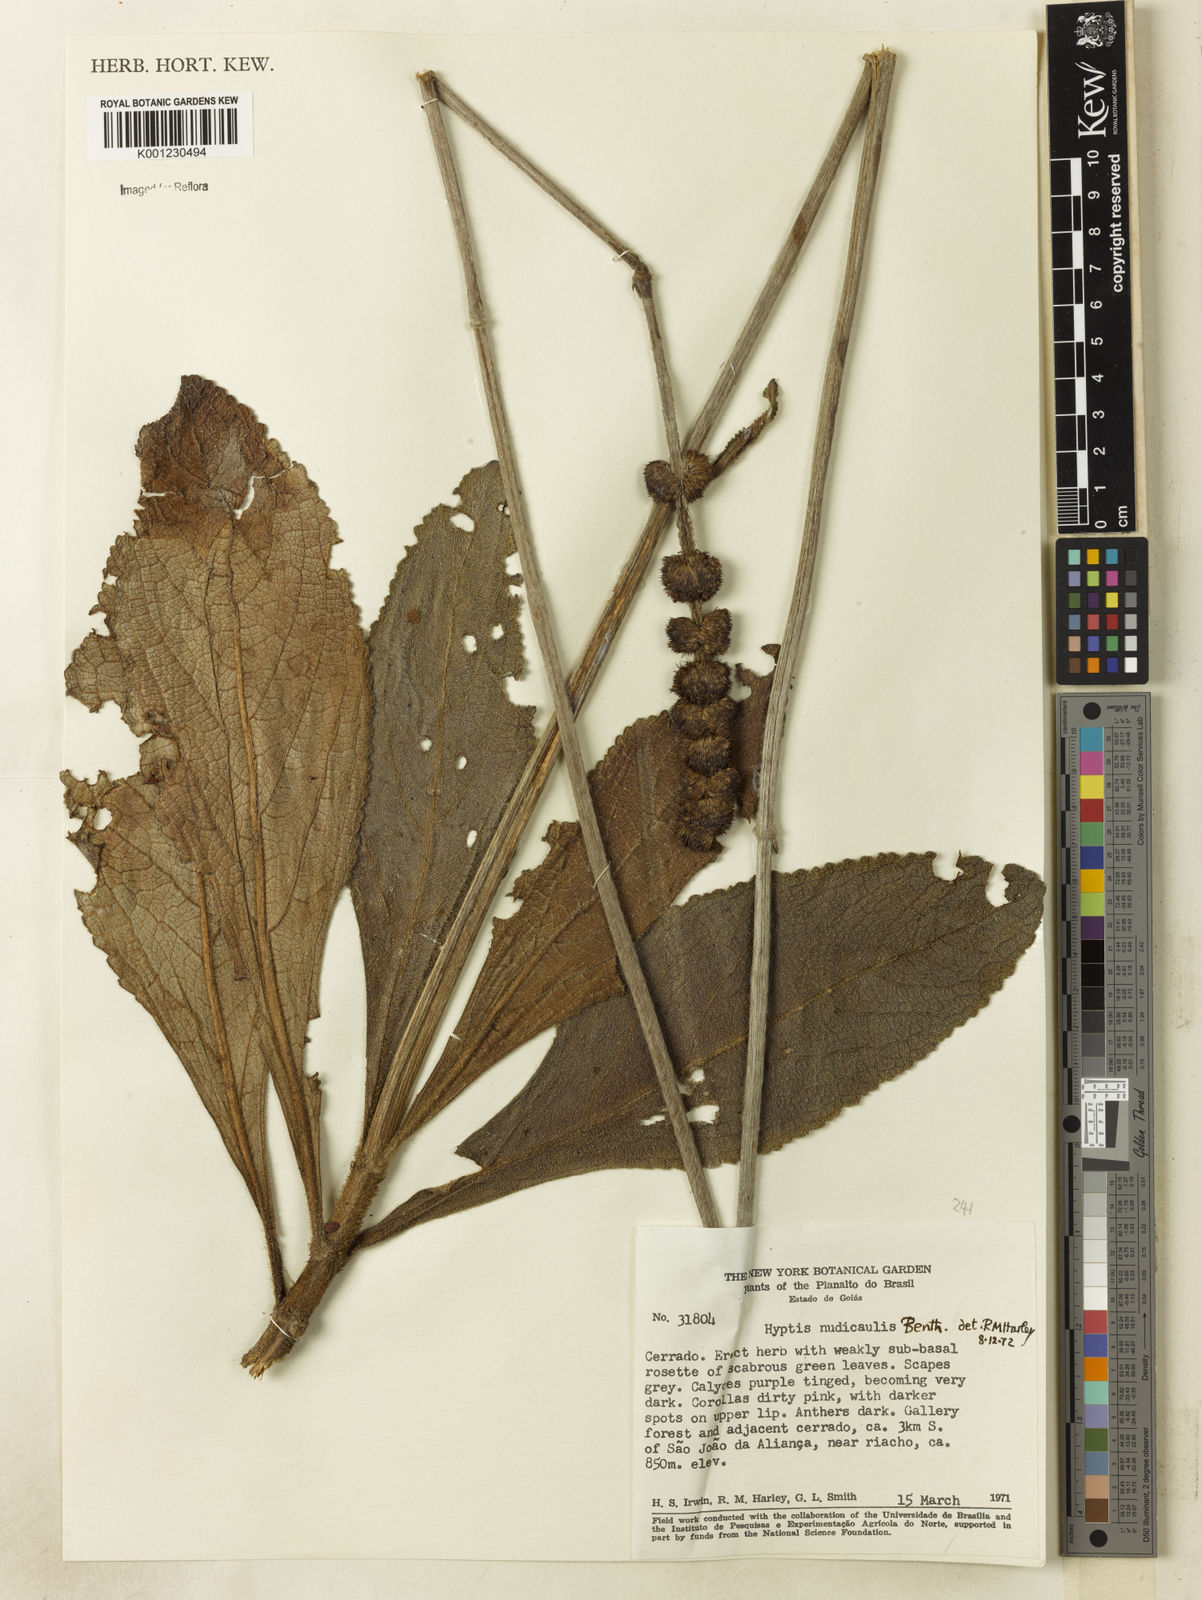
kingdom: Plantae
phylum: Tracheophyta
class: Magnoliopsida
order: Lamiales
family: Lamiaceae
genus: Hyptis
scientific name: Hyptis nudicaulis
